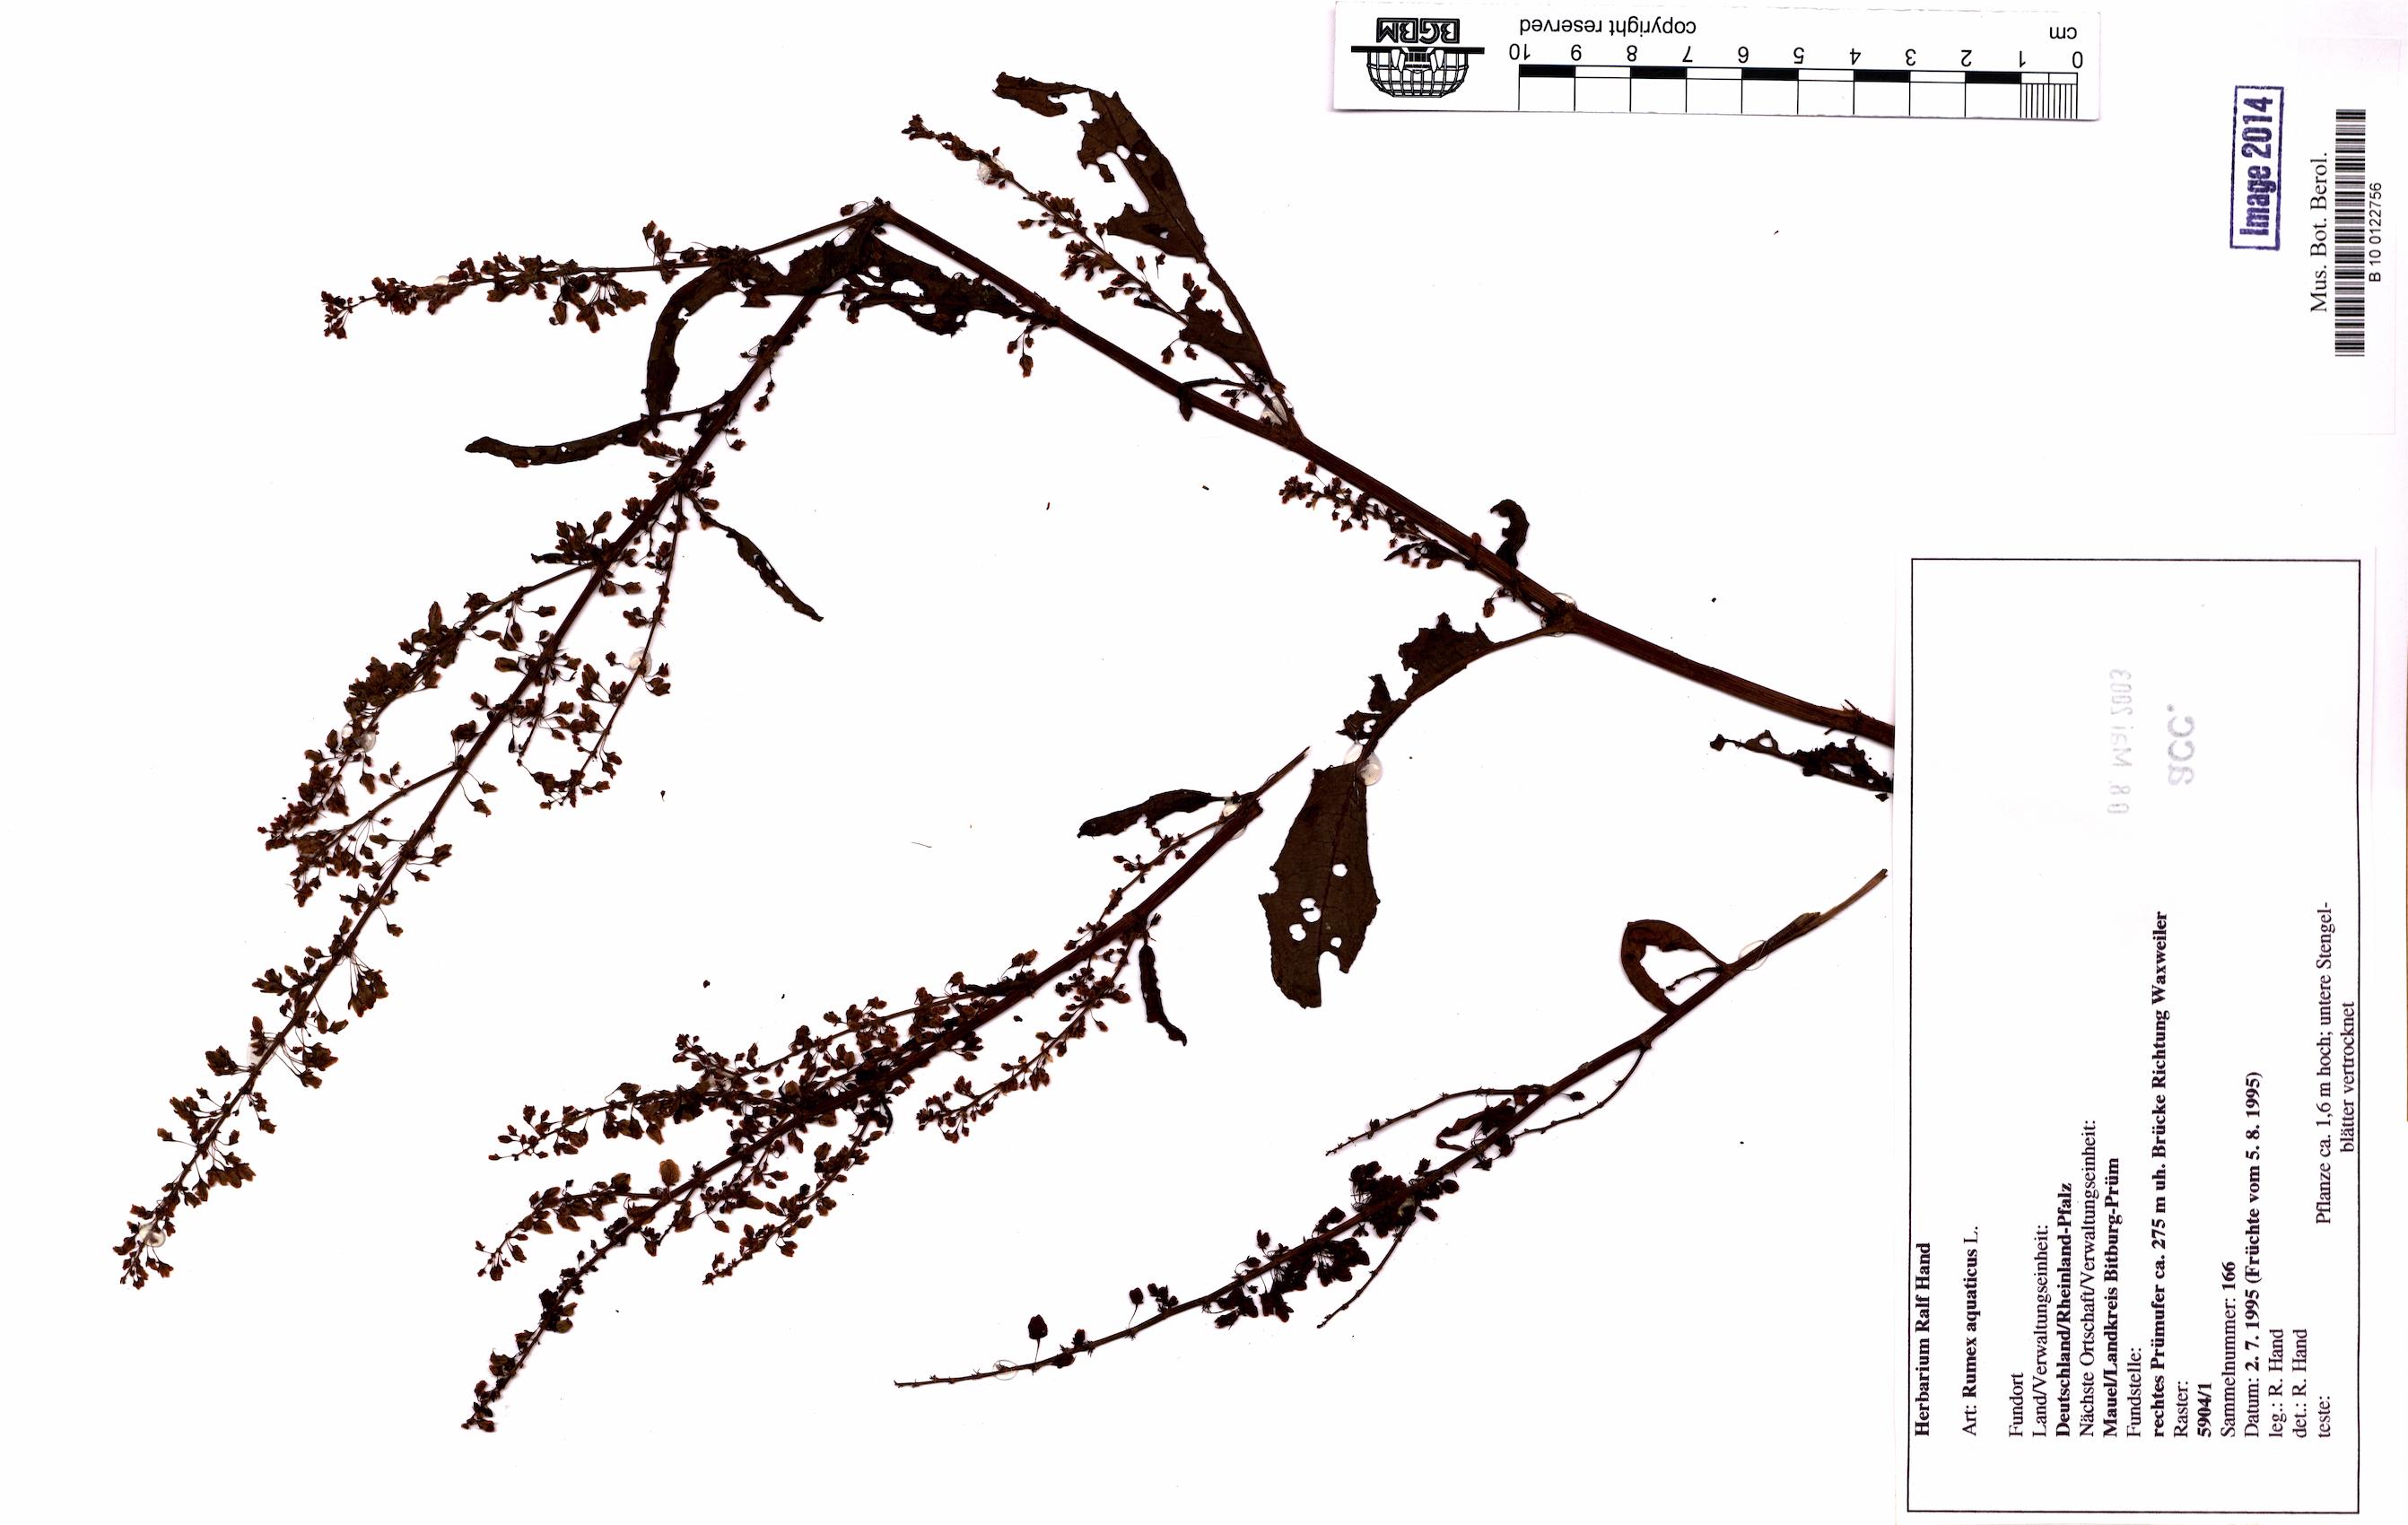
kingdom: Plantae
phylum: Tracheophyta
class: Magnoliopsida
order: Caryophyllales
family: Polygonaceae
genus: Rumex
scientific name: Rumex aquaticus
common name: Scottish dock
